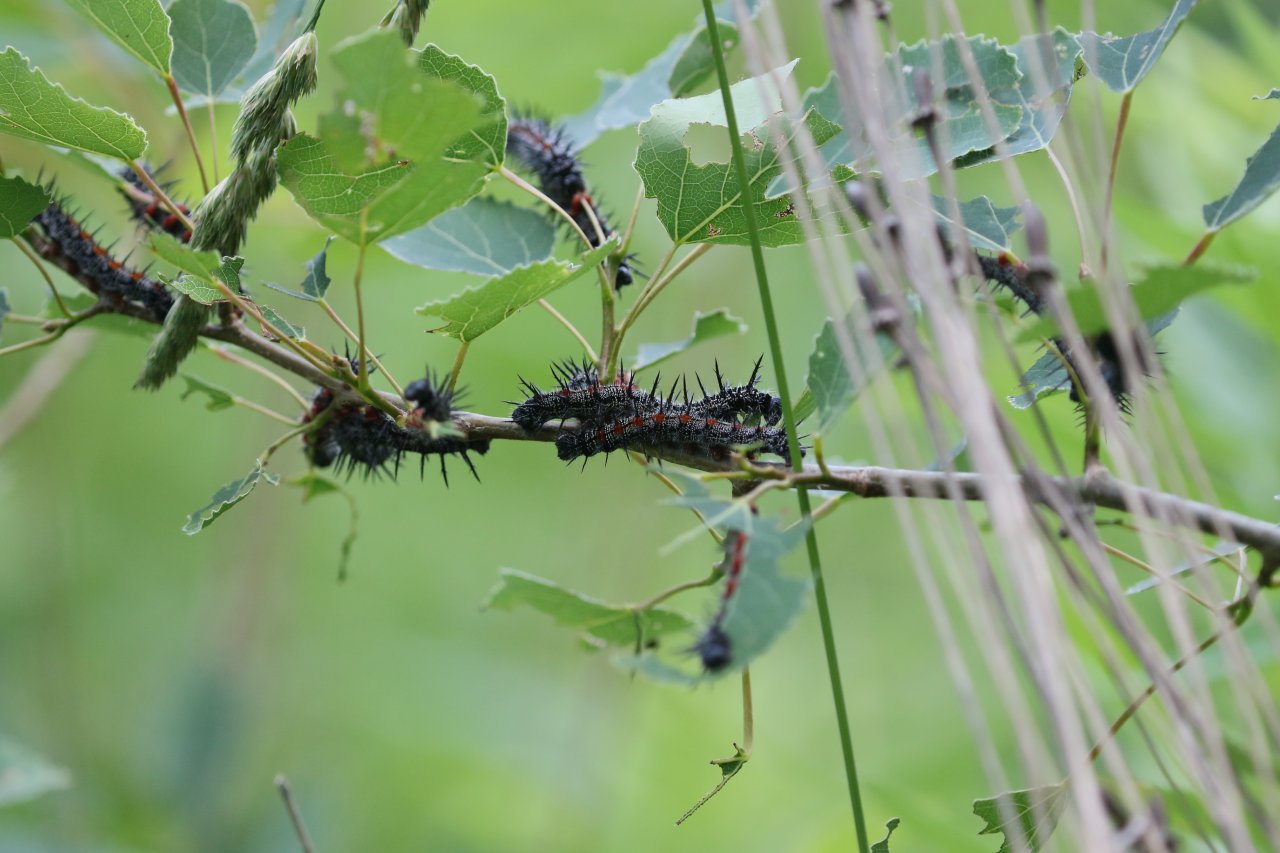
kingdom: Animalia
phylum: Arthropoda
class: Insecta
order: Lepidoptera
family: Nymphalidae
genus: Nymphalis
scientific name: Nymphalis antiopa
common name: Mourning Cloak
